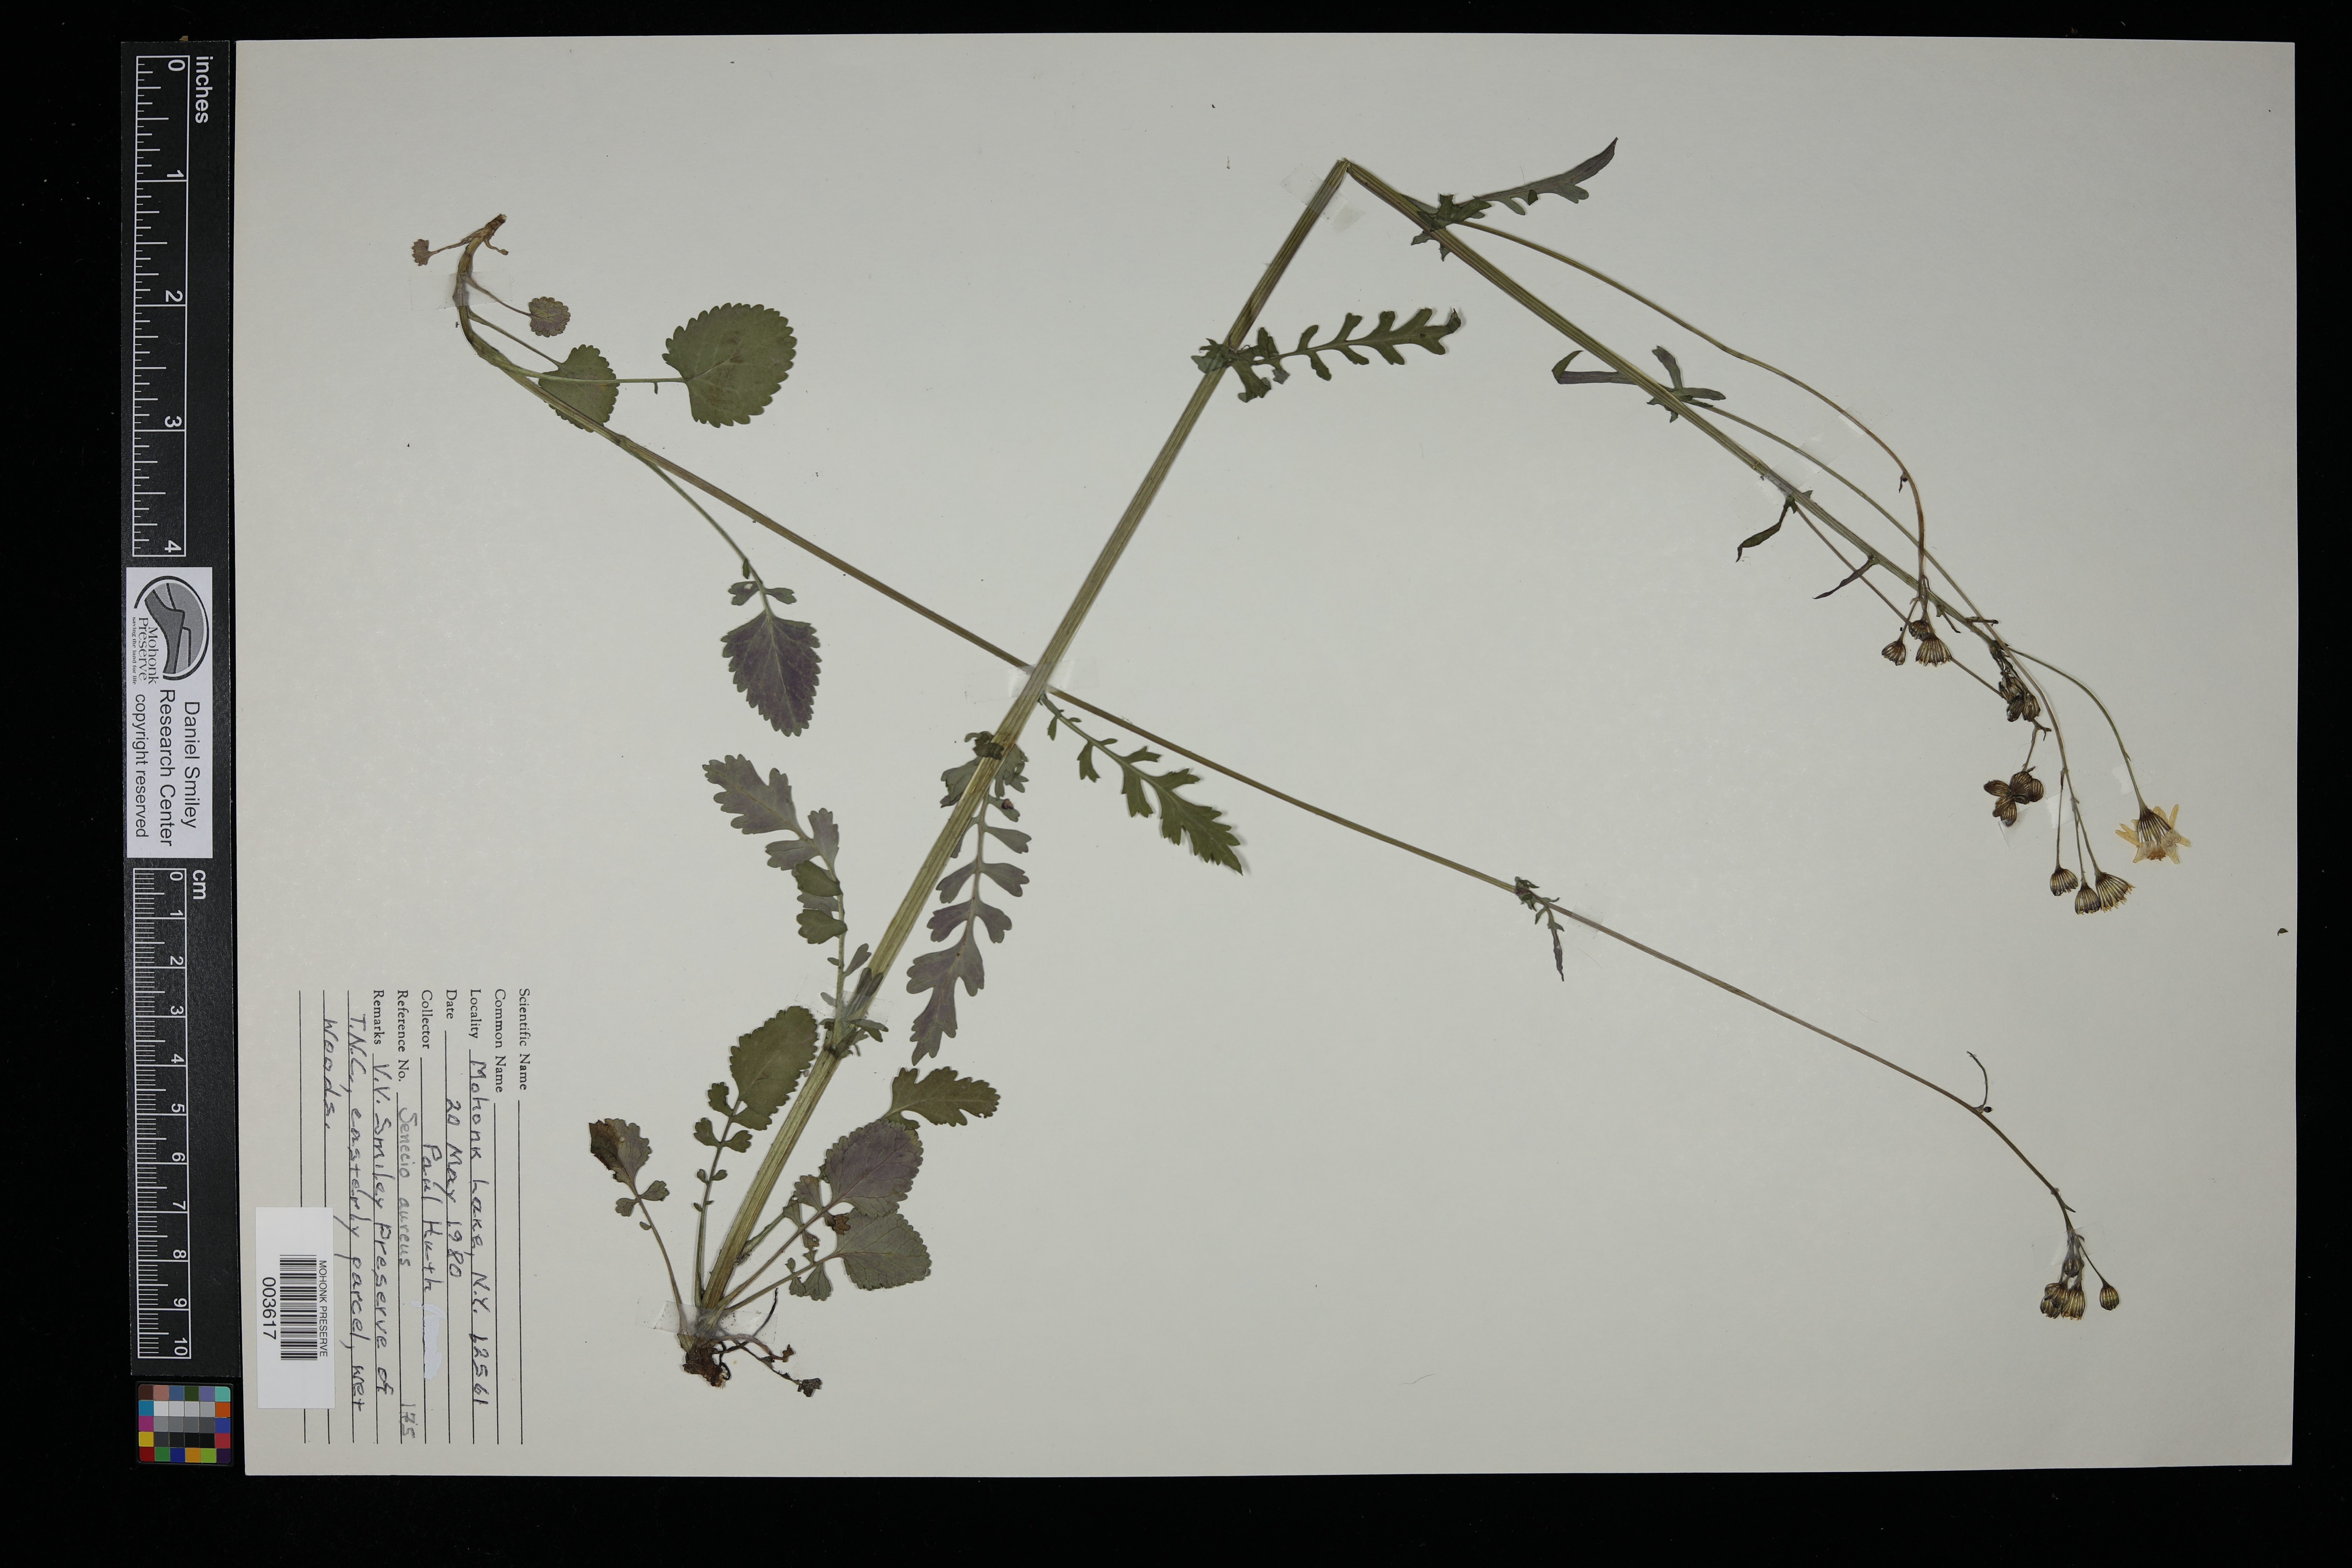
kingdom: Plantae
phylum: Tracheophyta
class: Magnoliopsida
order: Asterales
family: Asteraceae
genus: Packera
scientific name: Packera aurea
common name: Golden groundsel
